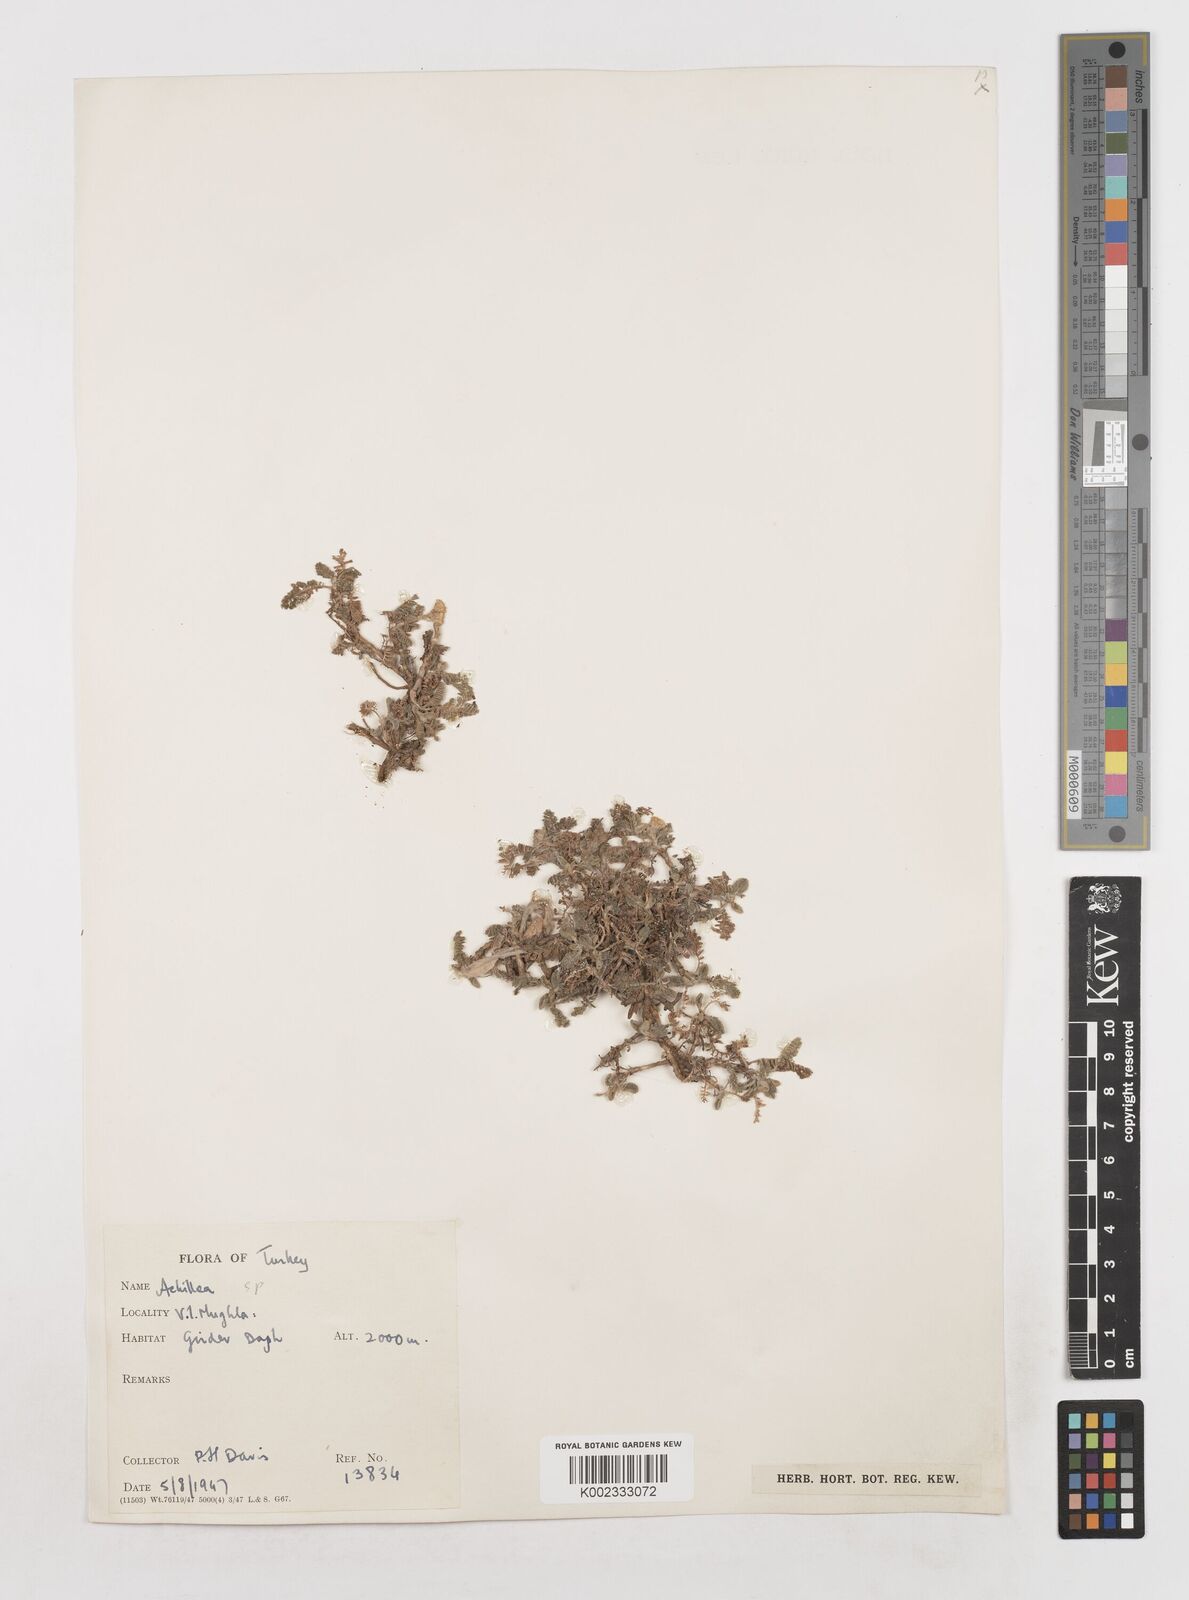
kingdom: Plantae
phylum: Tracheophyta
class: Magnoliopsida
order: Asterales
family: Asteraceae
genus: Achillea
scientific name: Achillea
